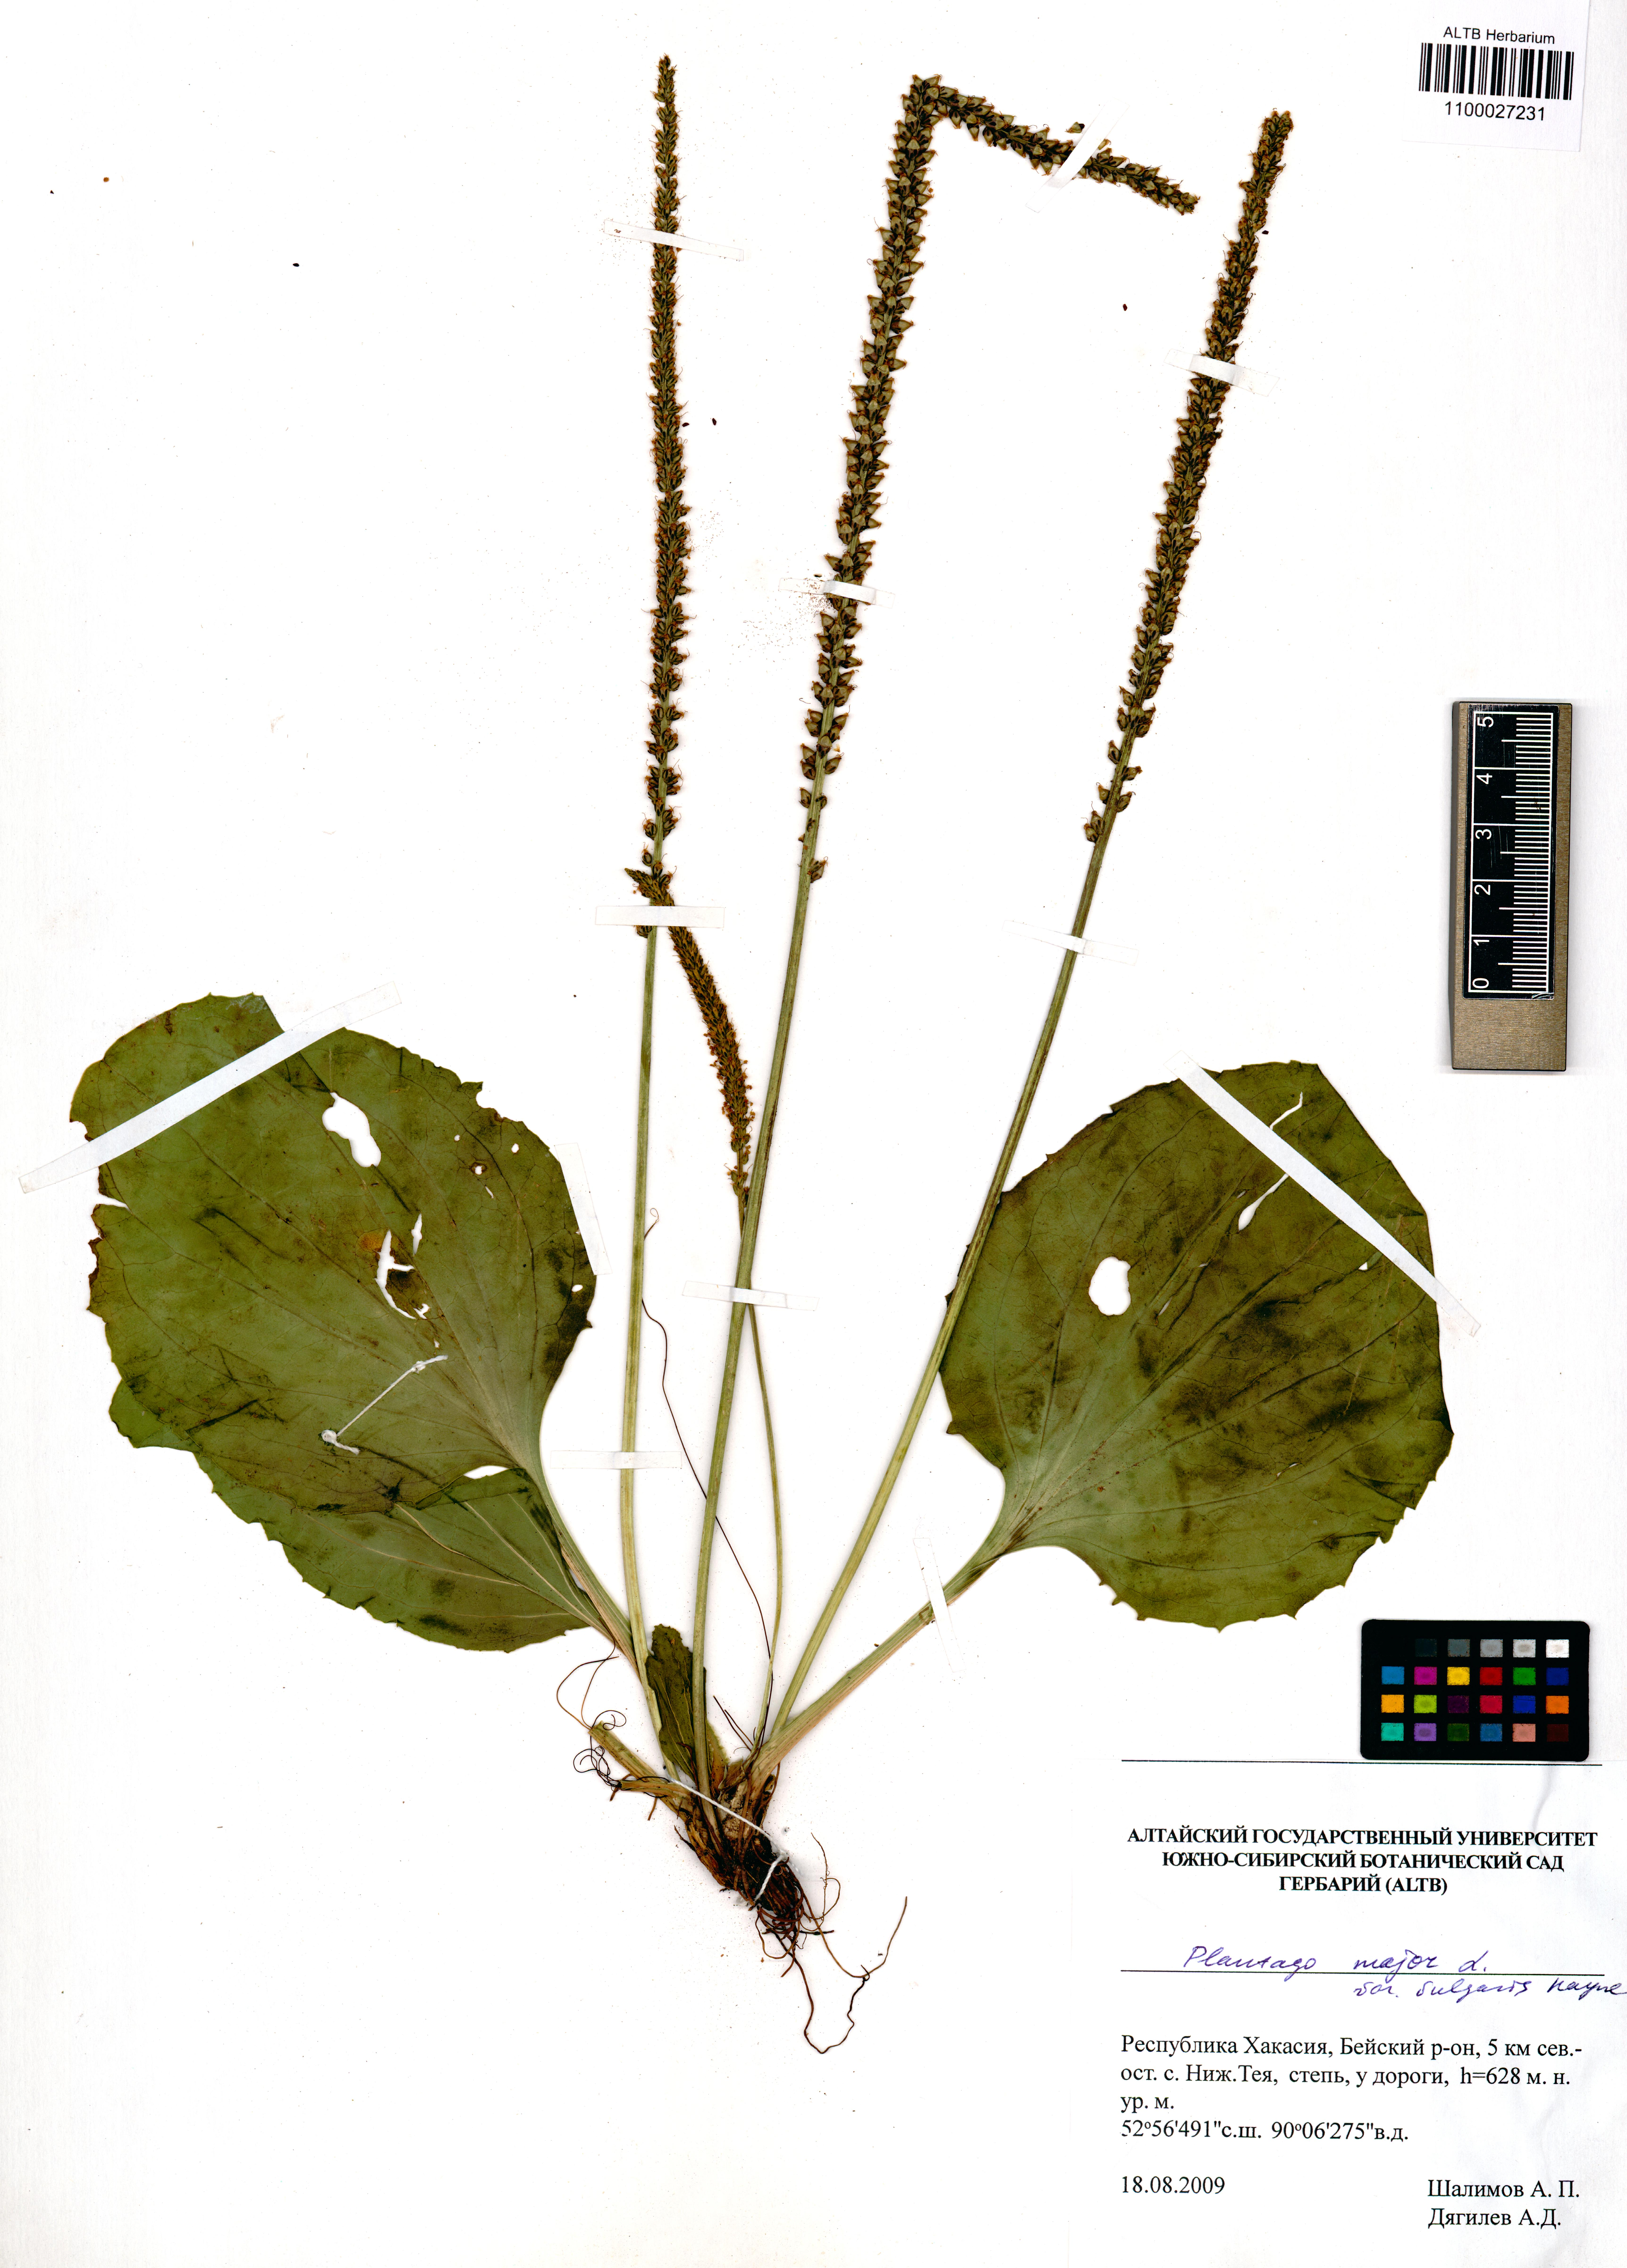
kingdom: Plantae
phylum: Tracheophyta
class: Magnoliopsida
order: Lamiales
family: Plantaginaceae
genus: Plantago
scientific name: Plantago major
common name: Common plantain
